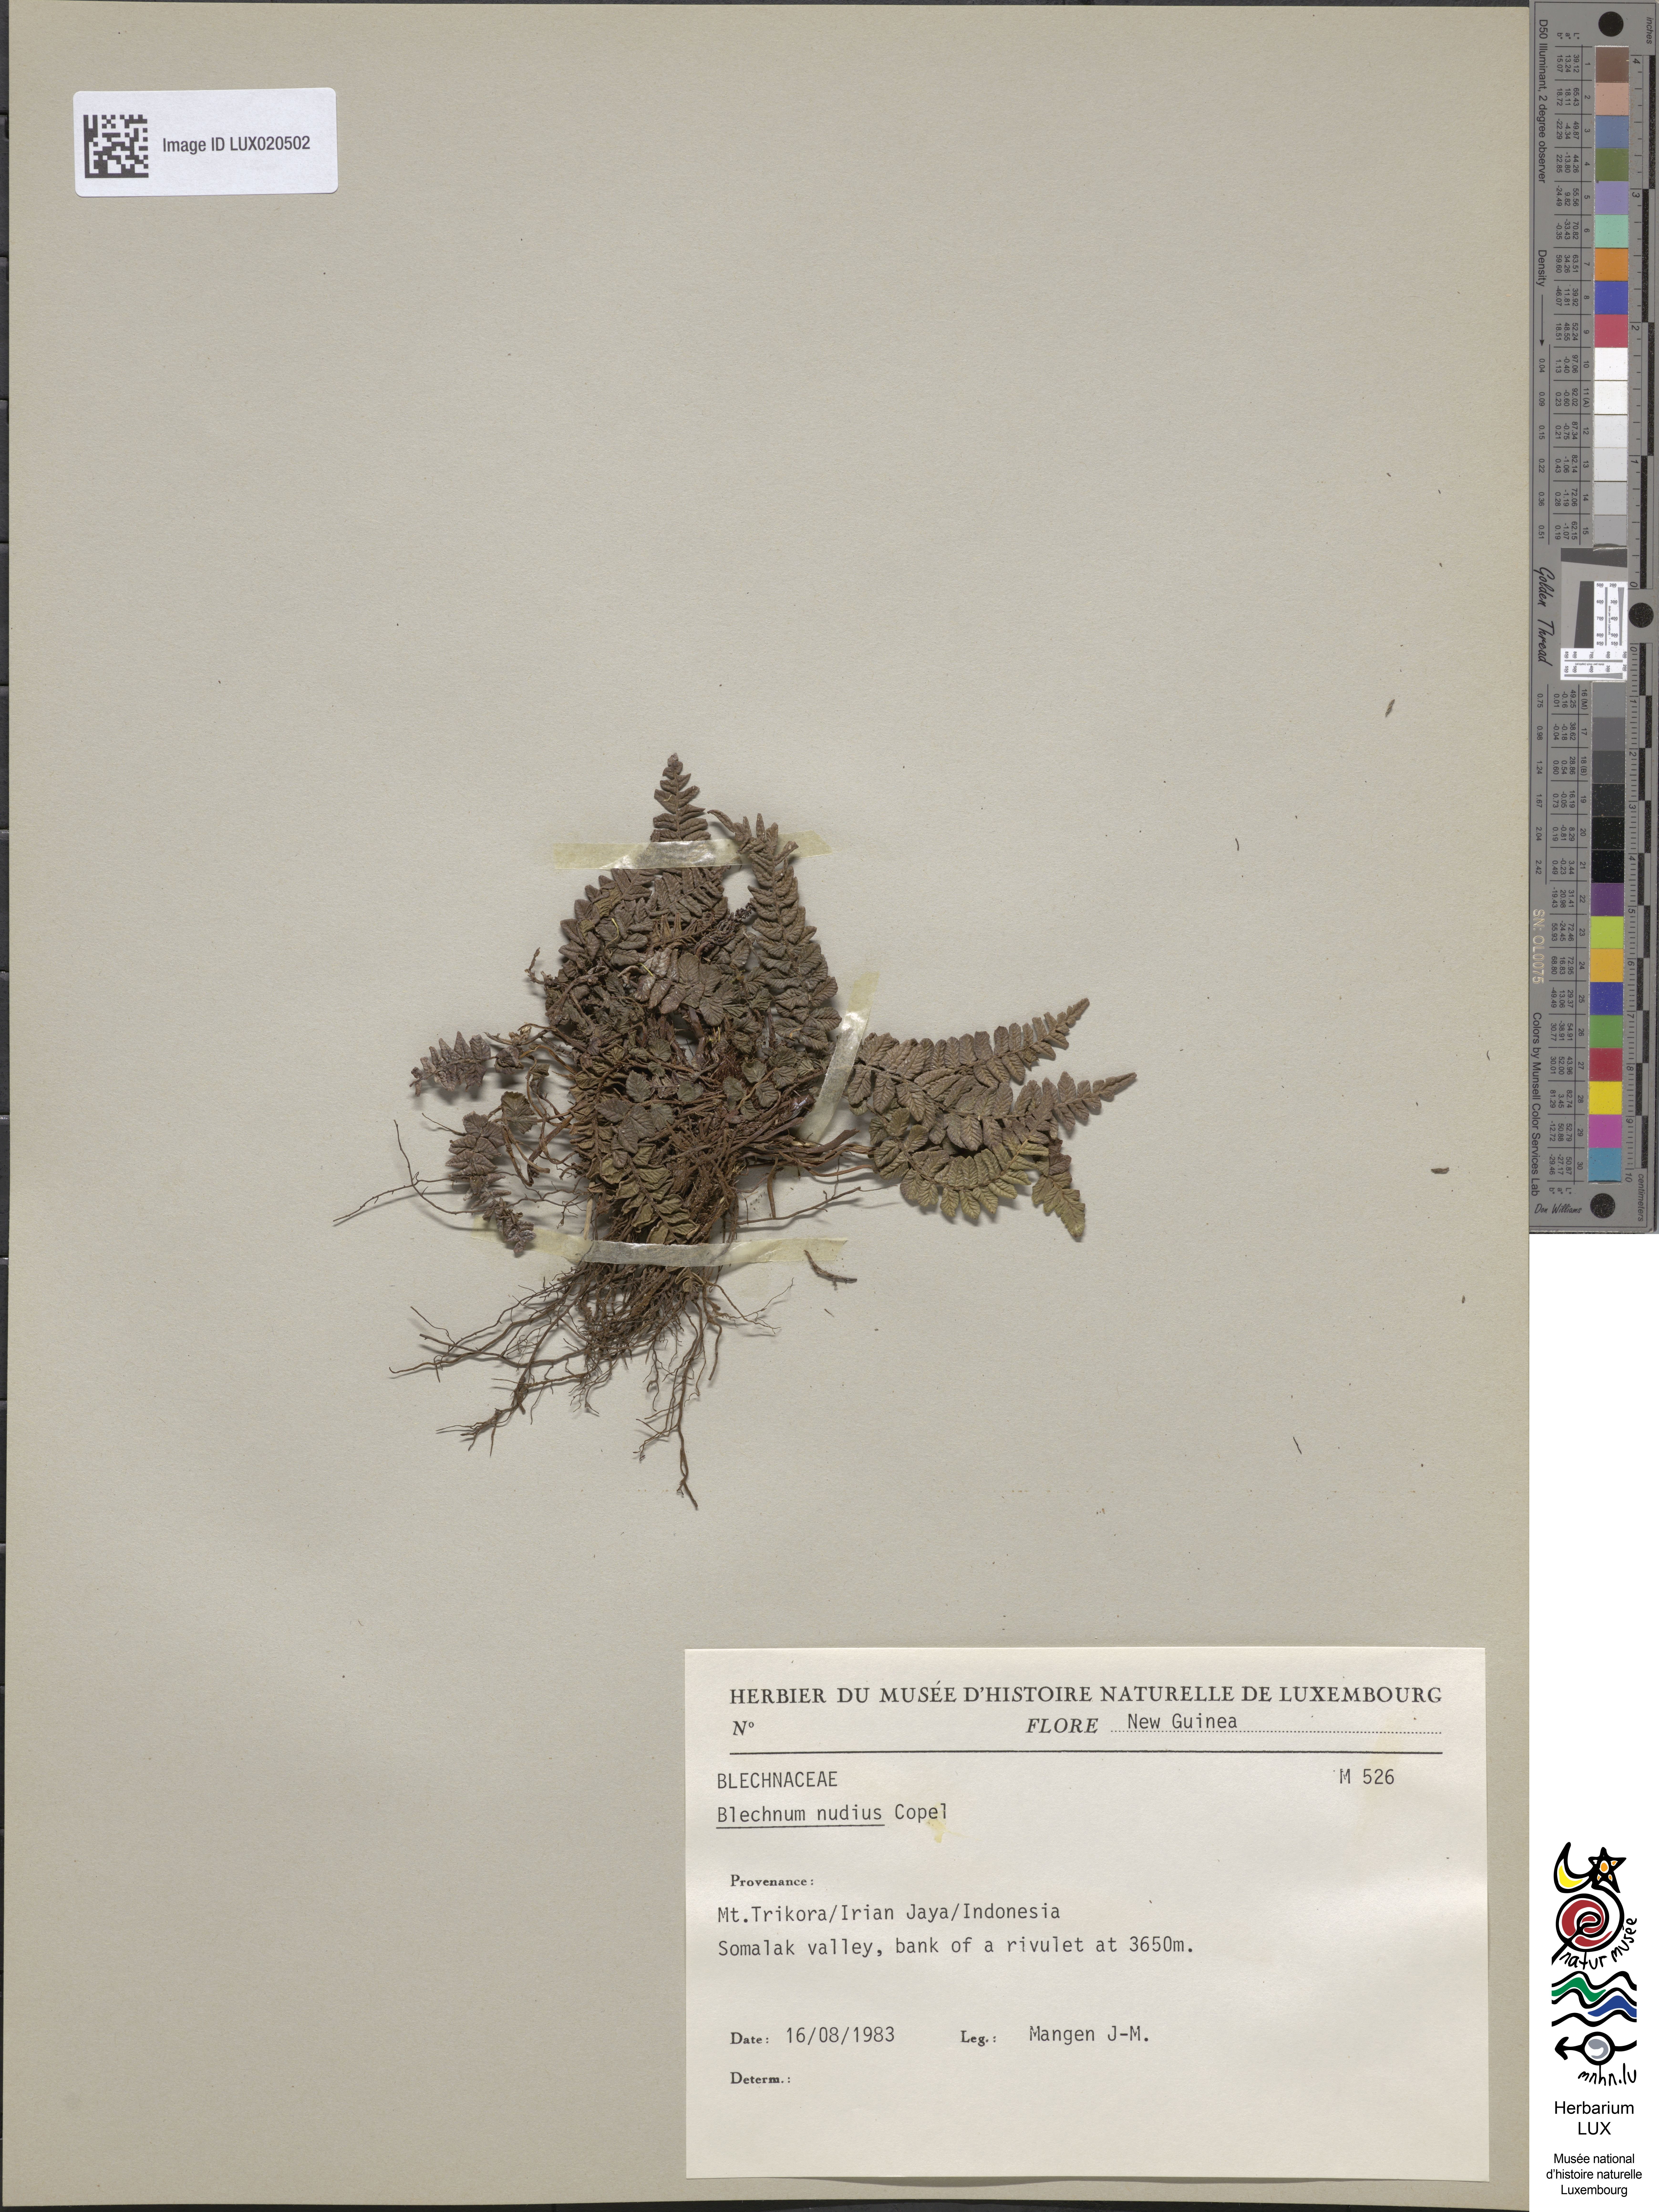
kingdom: Plantae
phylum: Tracheophyta
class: Polypodiopsida
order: Polypodiales
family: Blechnaceae
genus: Cranfillia
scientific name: Cranfillia fluviatilis
